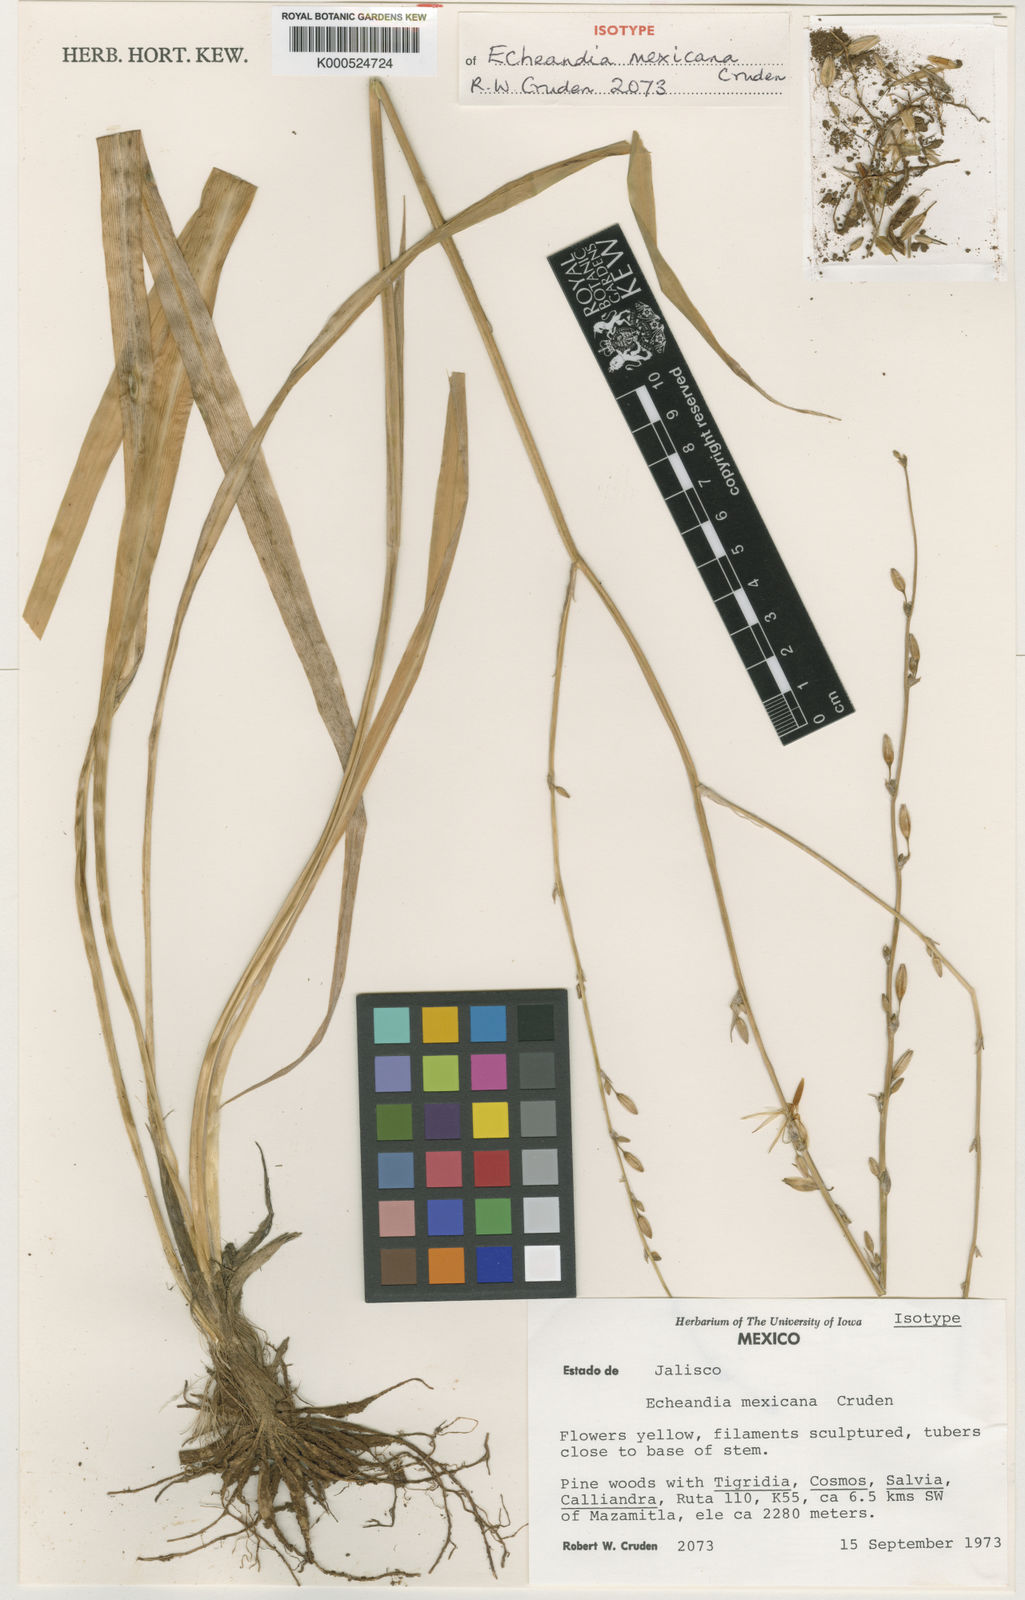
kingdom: Plantae
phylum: Tracheophyta
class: Liliopsida
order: Asparagales
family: Asparagaceae
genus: Echeandia
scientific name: Echeandia mexiae
